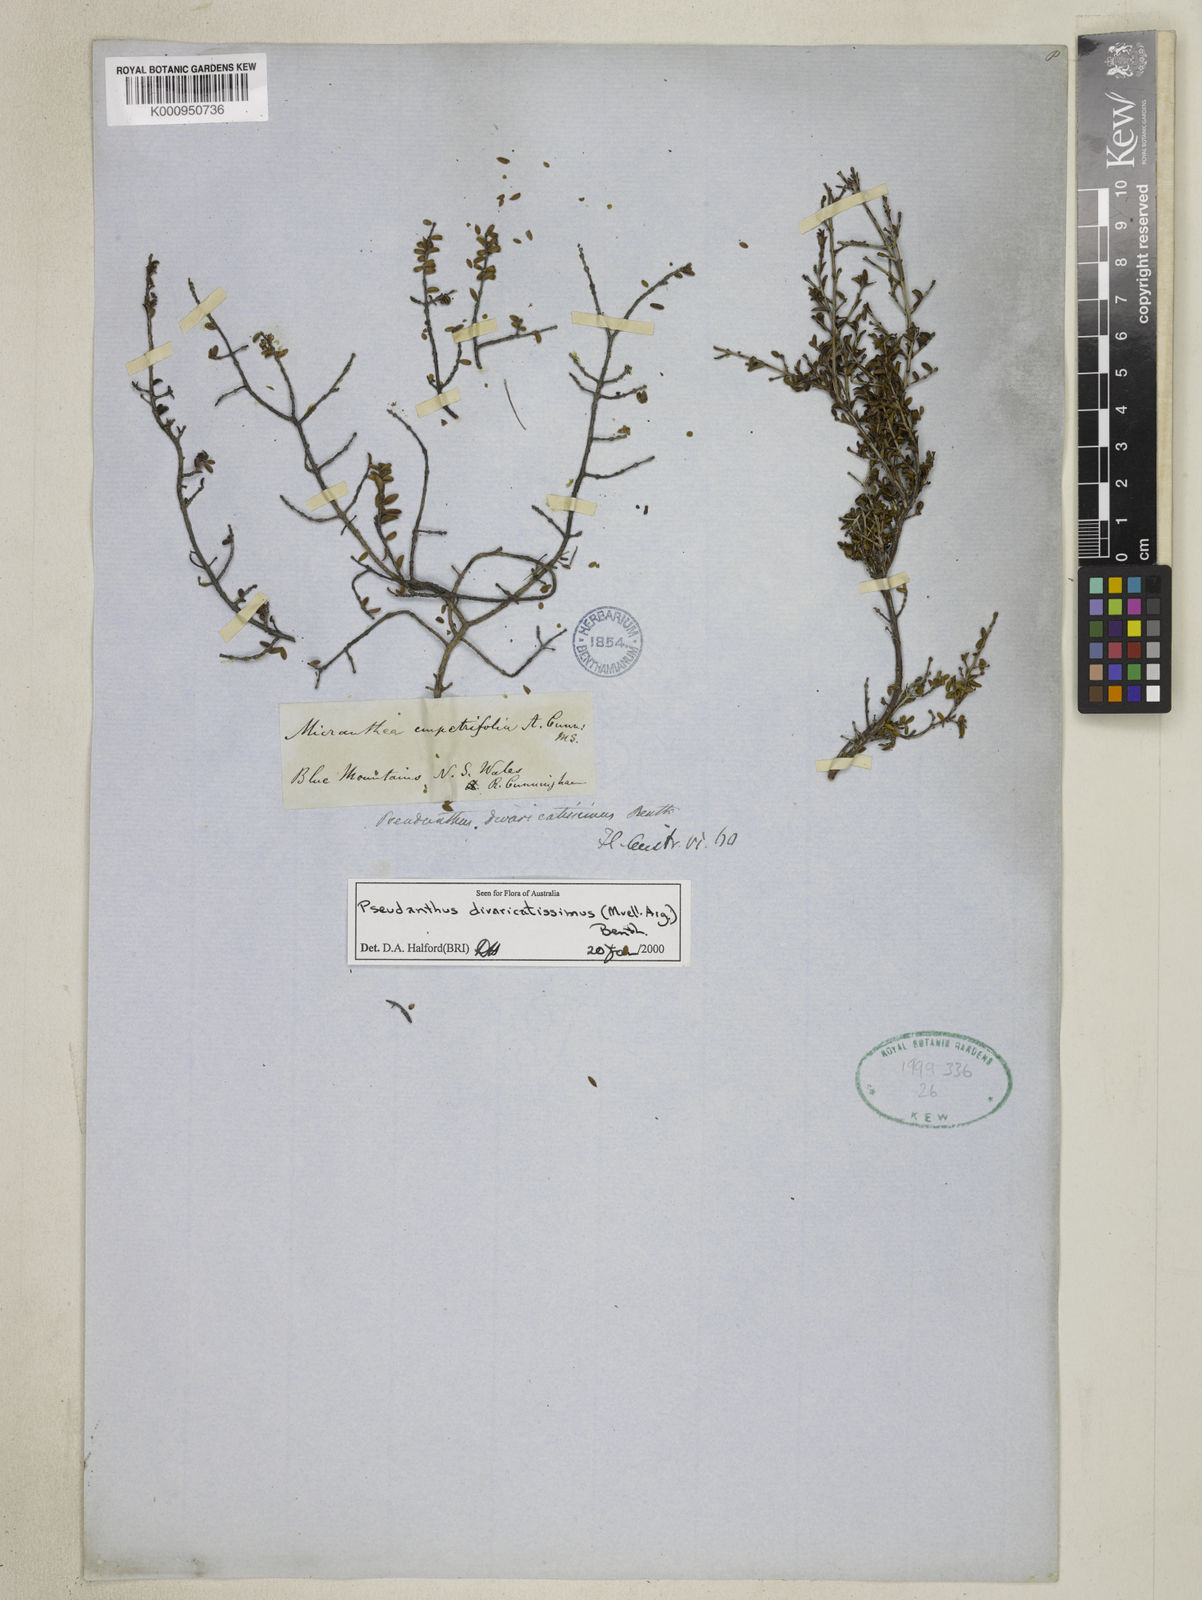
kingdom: Plantae
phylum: Tracheophyta
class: Magnoliopsida
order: Malpighiales
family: Picrodendraceae
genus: Pseudanthus
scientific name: Pseudanthus
